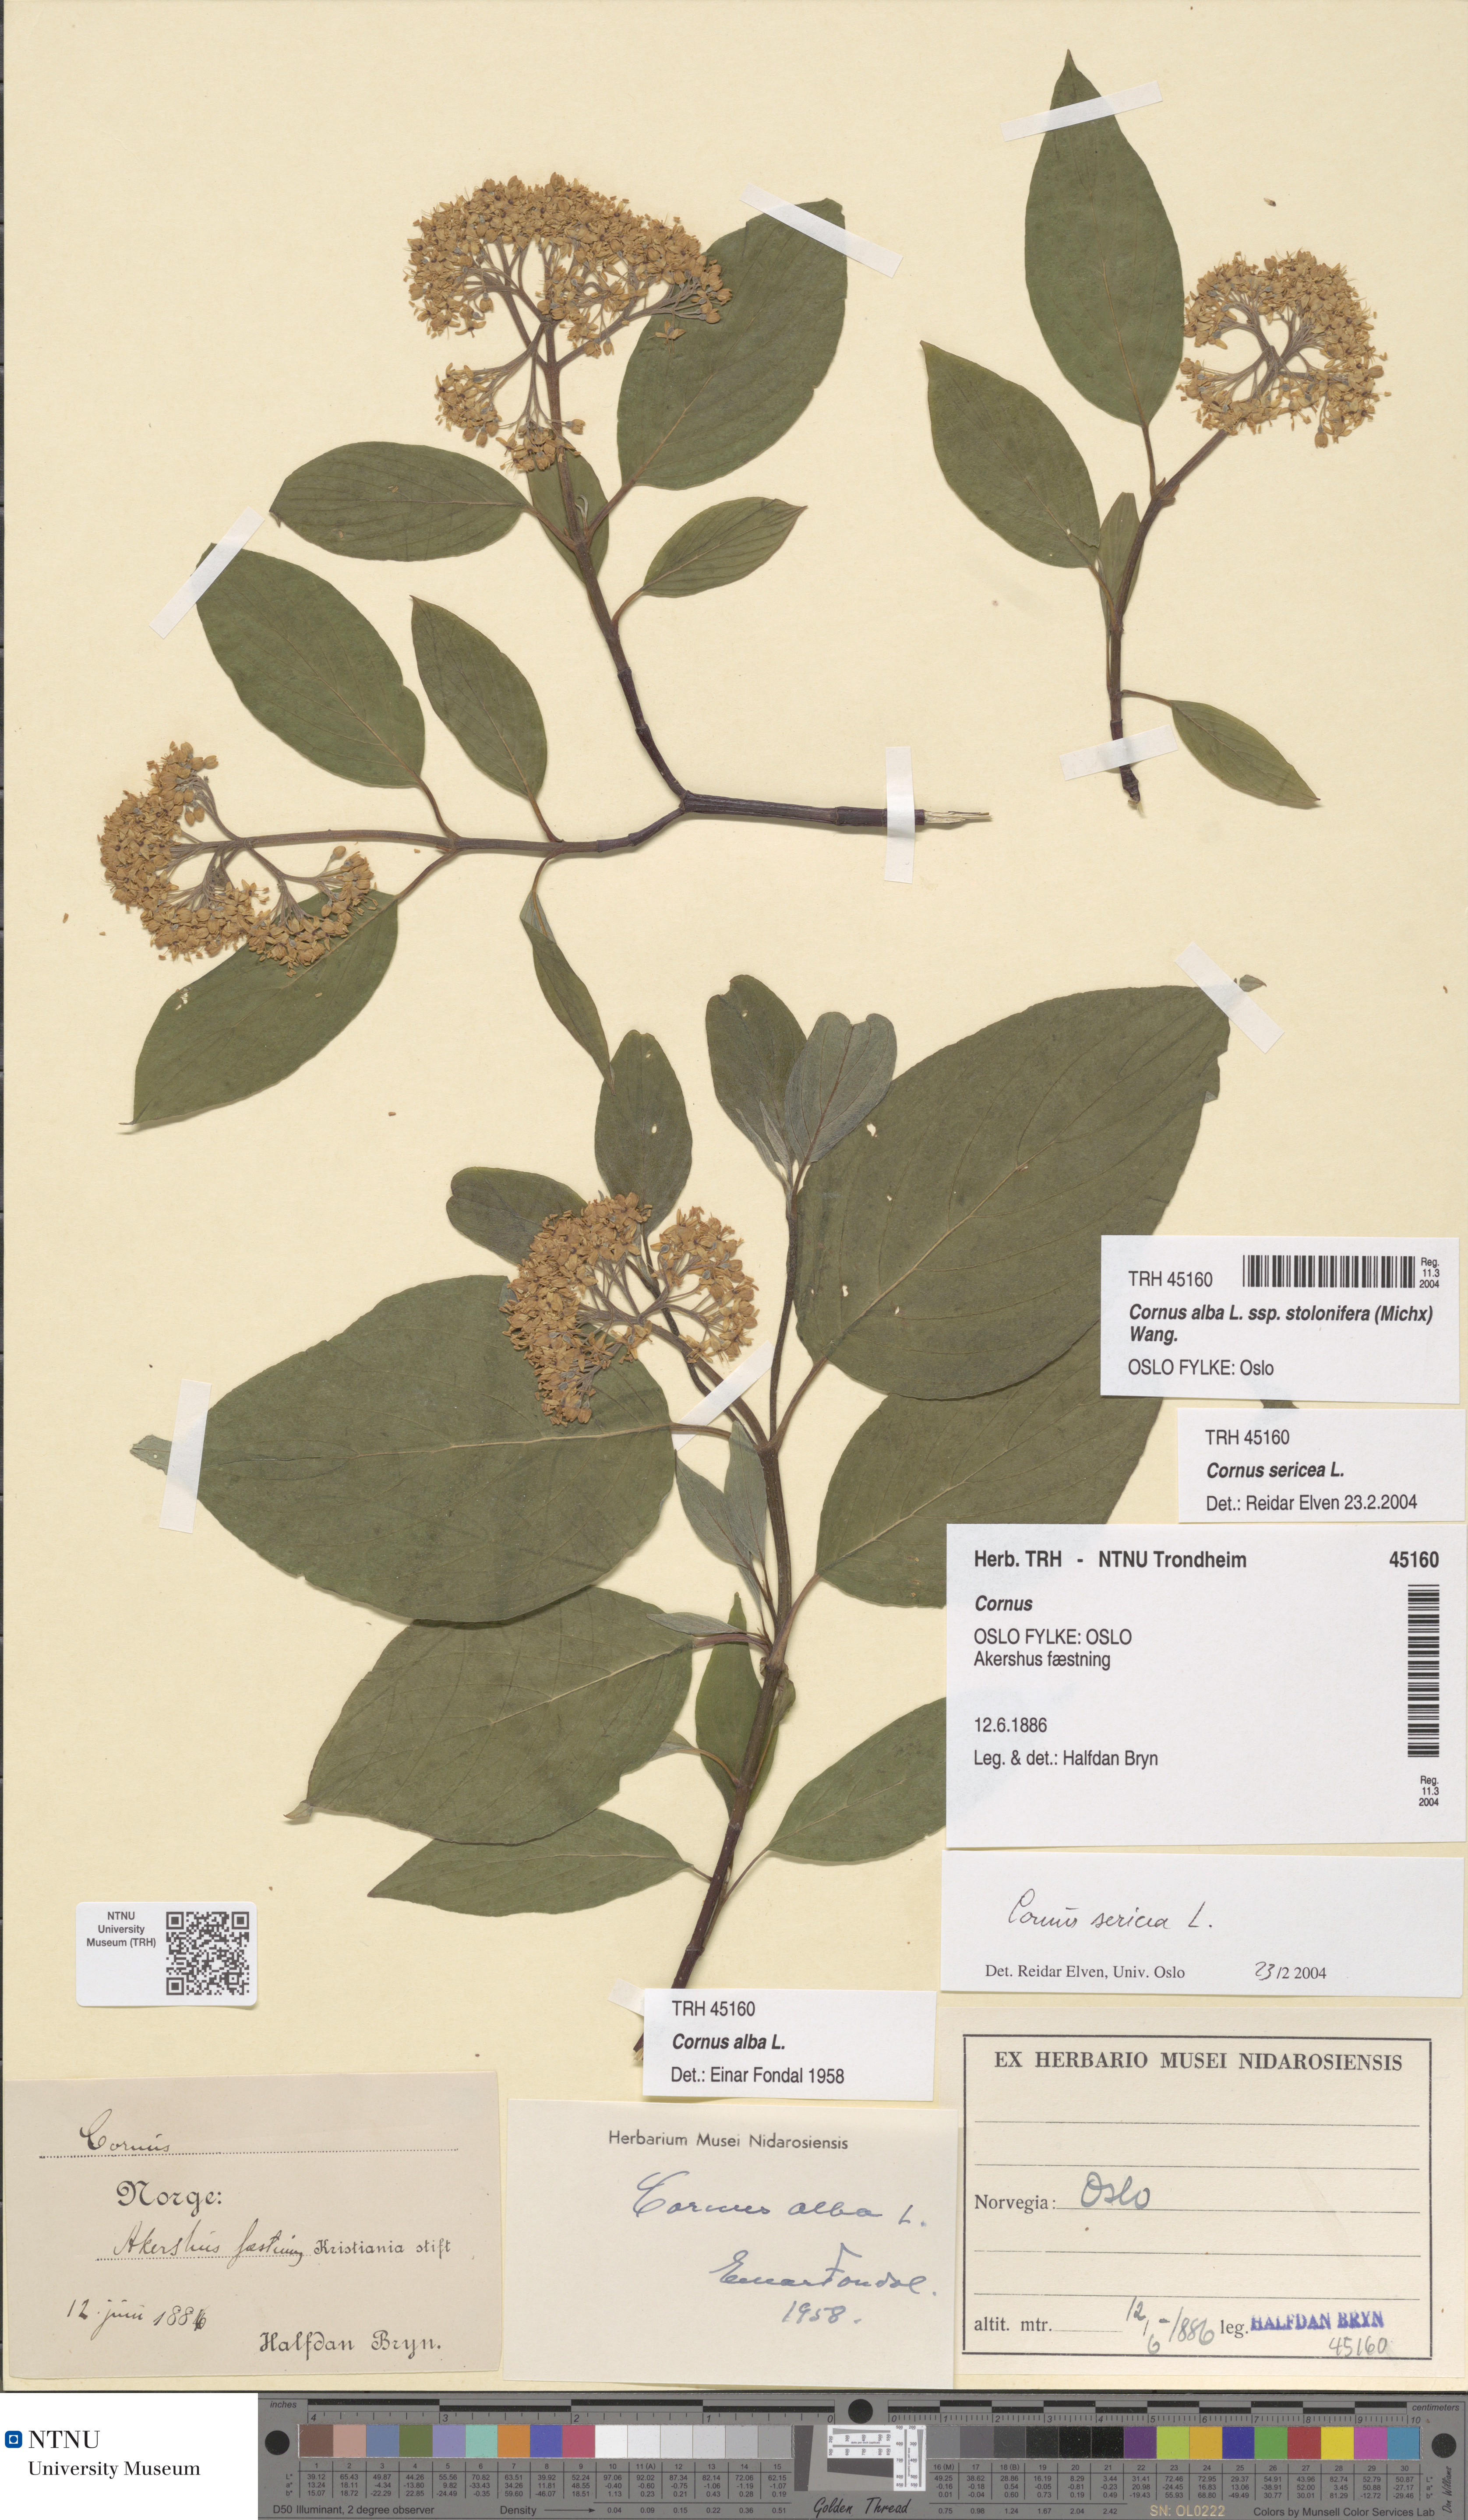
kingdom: Plantae
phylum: Tracheophyta
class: Magnoliopsida
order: Cornales
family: Cornaceae
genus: Cornus
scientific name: Cornus sericea
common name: Red-osier dogwood
